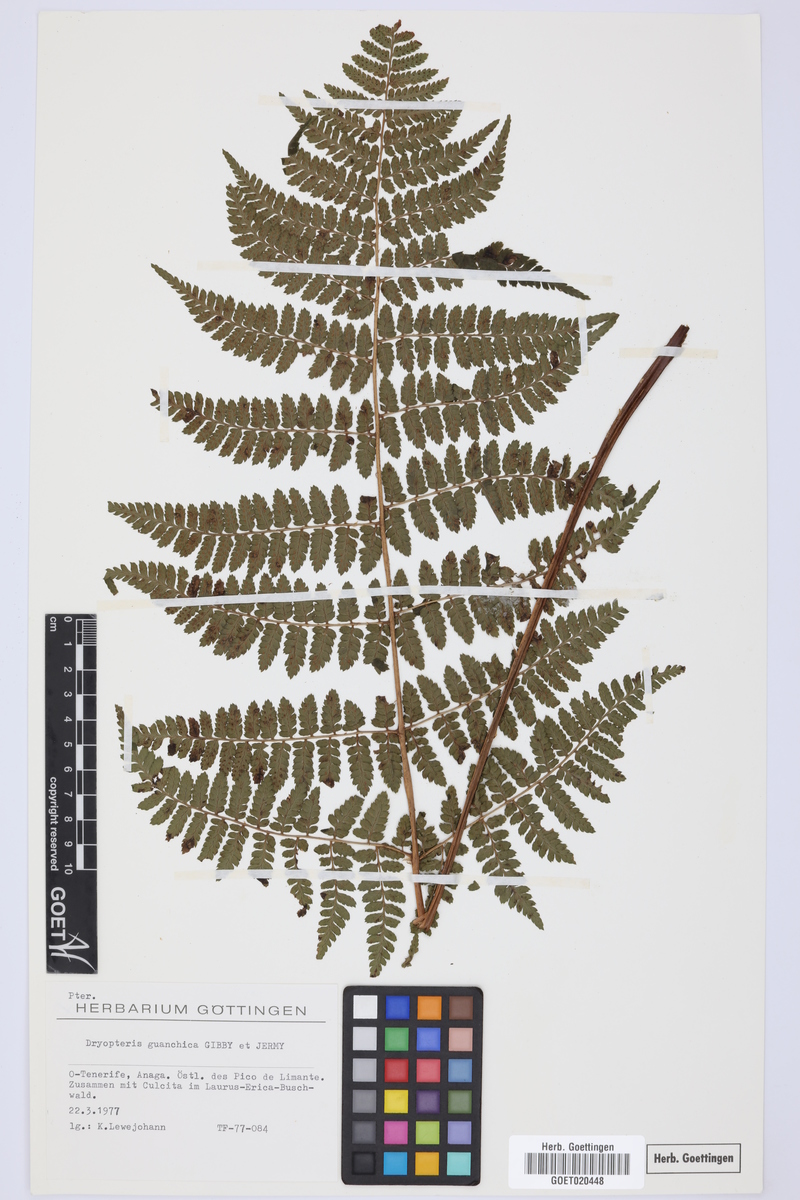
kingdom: Plantae
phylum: Tracheophyta
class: Polypodiopsida
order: Polypodiales
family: Dryopteridaceae
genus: Dryopteris
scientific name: Dryopteris guanchica
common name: Guanche woodfern
